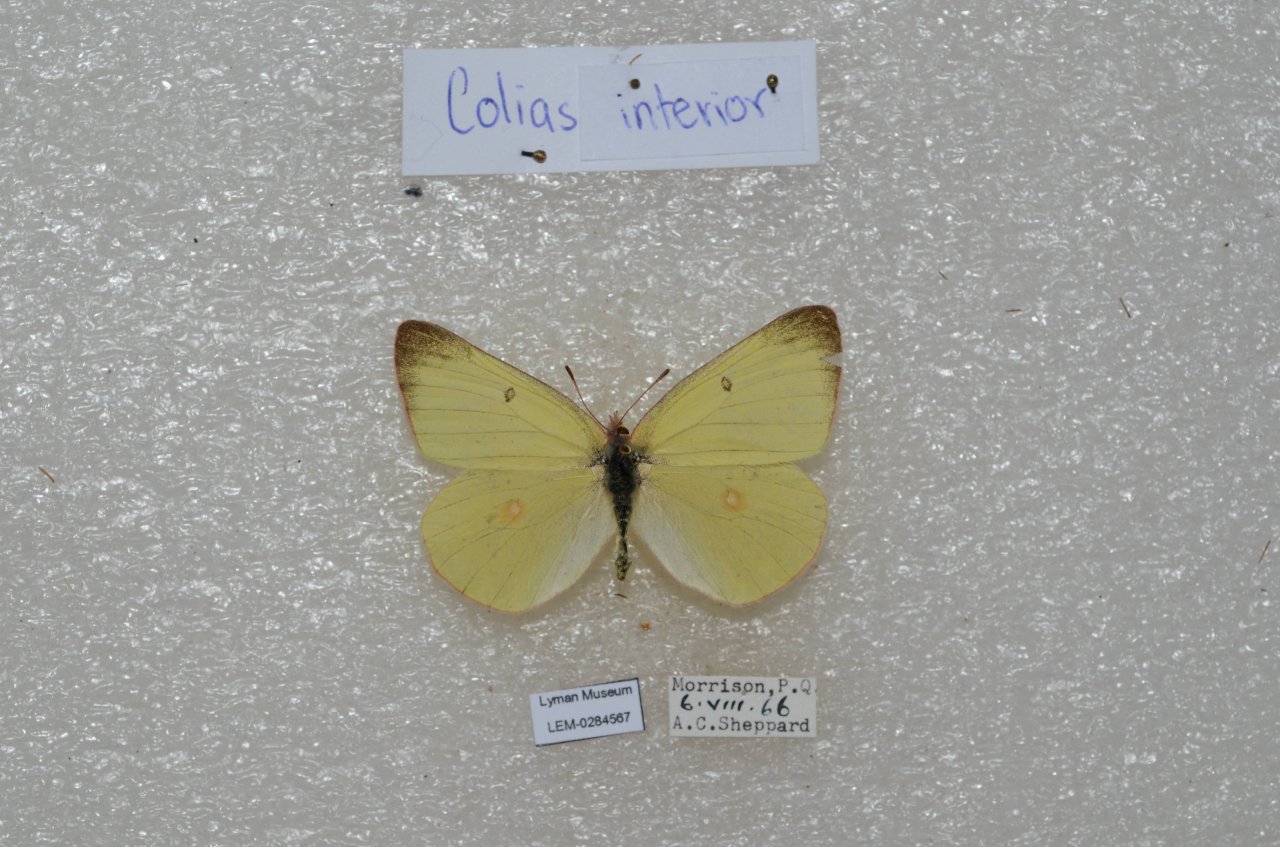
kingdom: Animalia
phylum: Arthropoda
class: Insecta
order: Lepidoptera
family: Pieridae
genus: Colias
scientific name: Colias interior
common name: Pink-edged Sulphur
